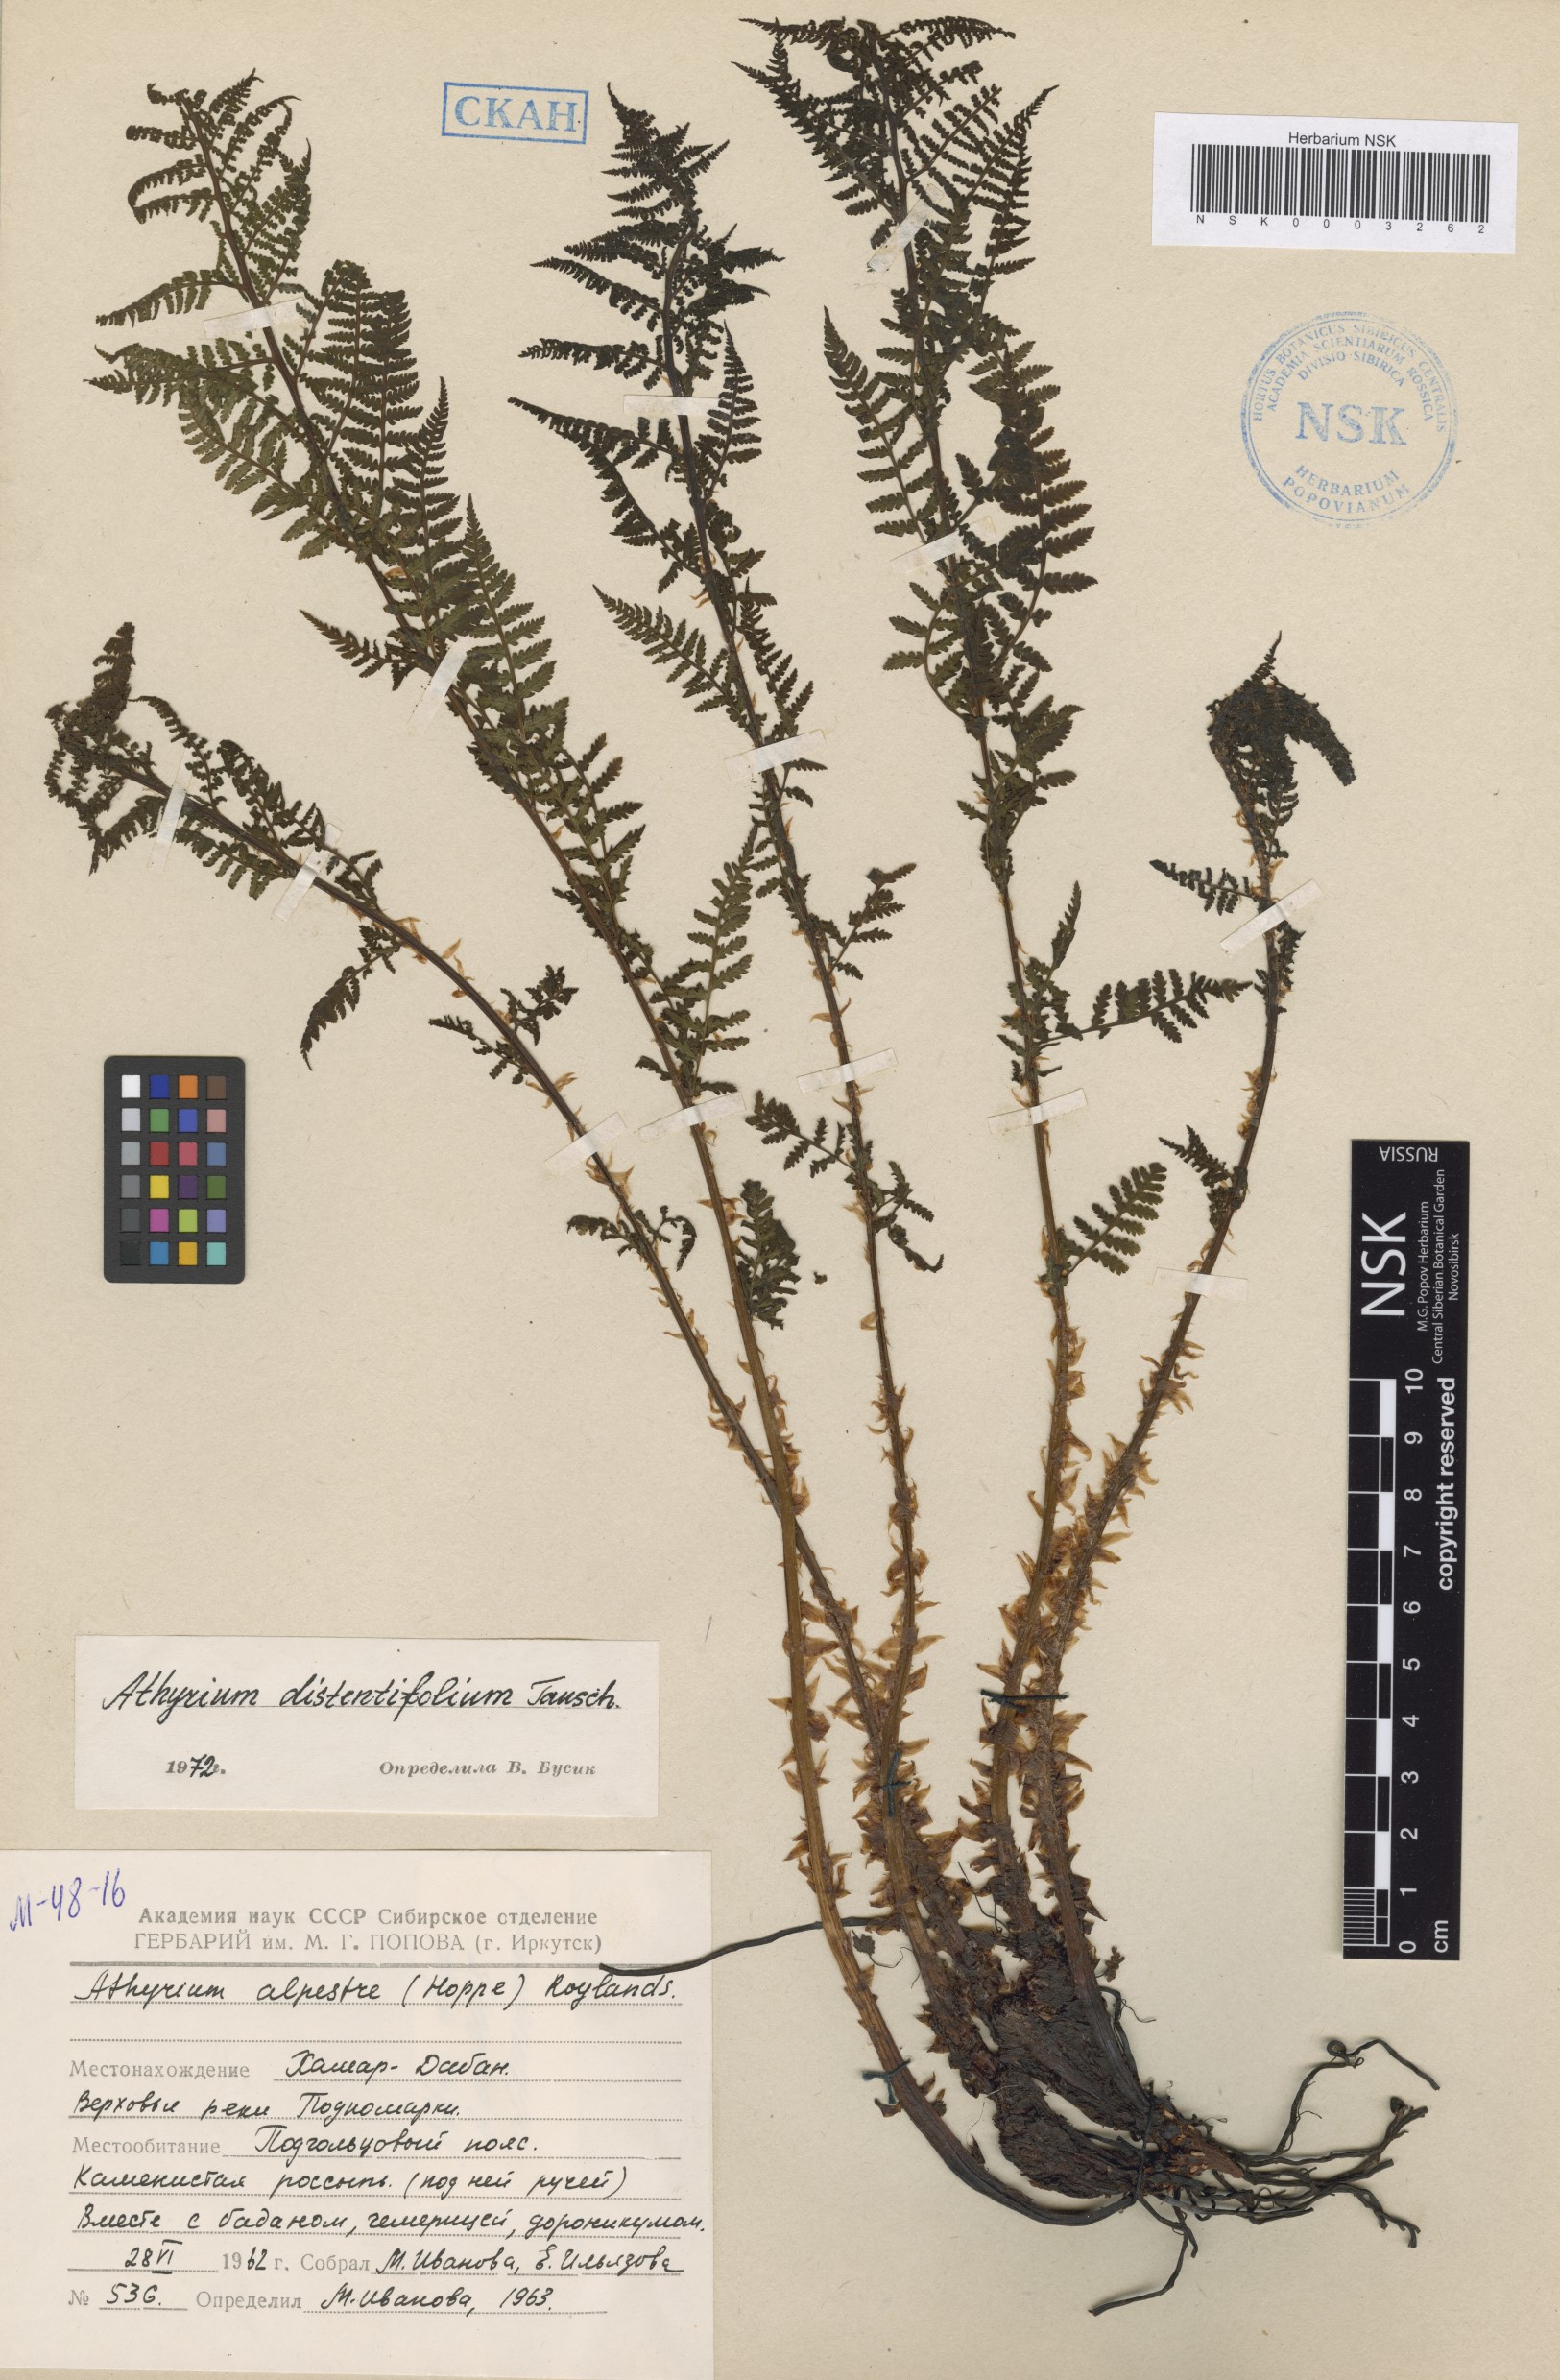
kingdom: Plantae
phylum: Tracheophyta
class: Polypodiopsida
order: Polypodiales
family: Athyriaceae
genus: Pseudathyrium
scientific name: Pseudathyrium alpestre
